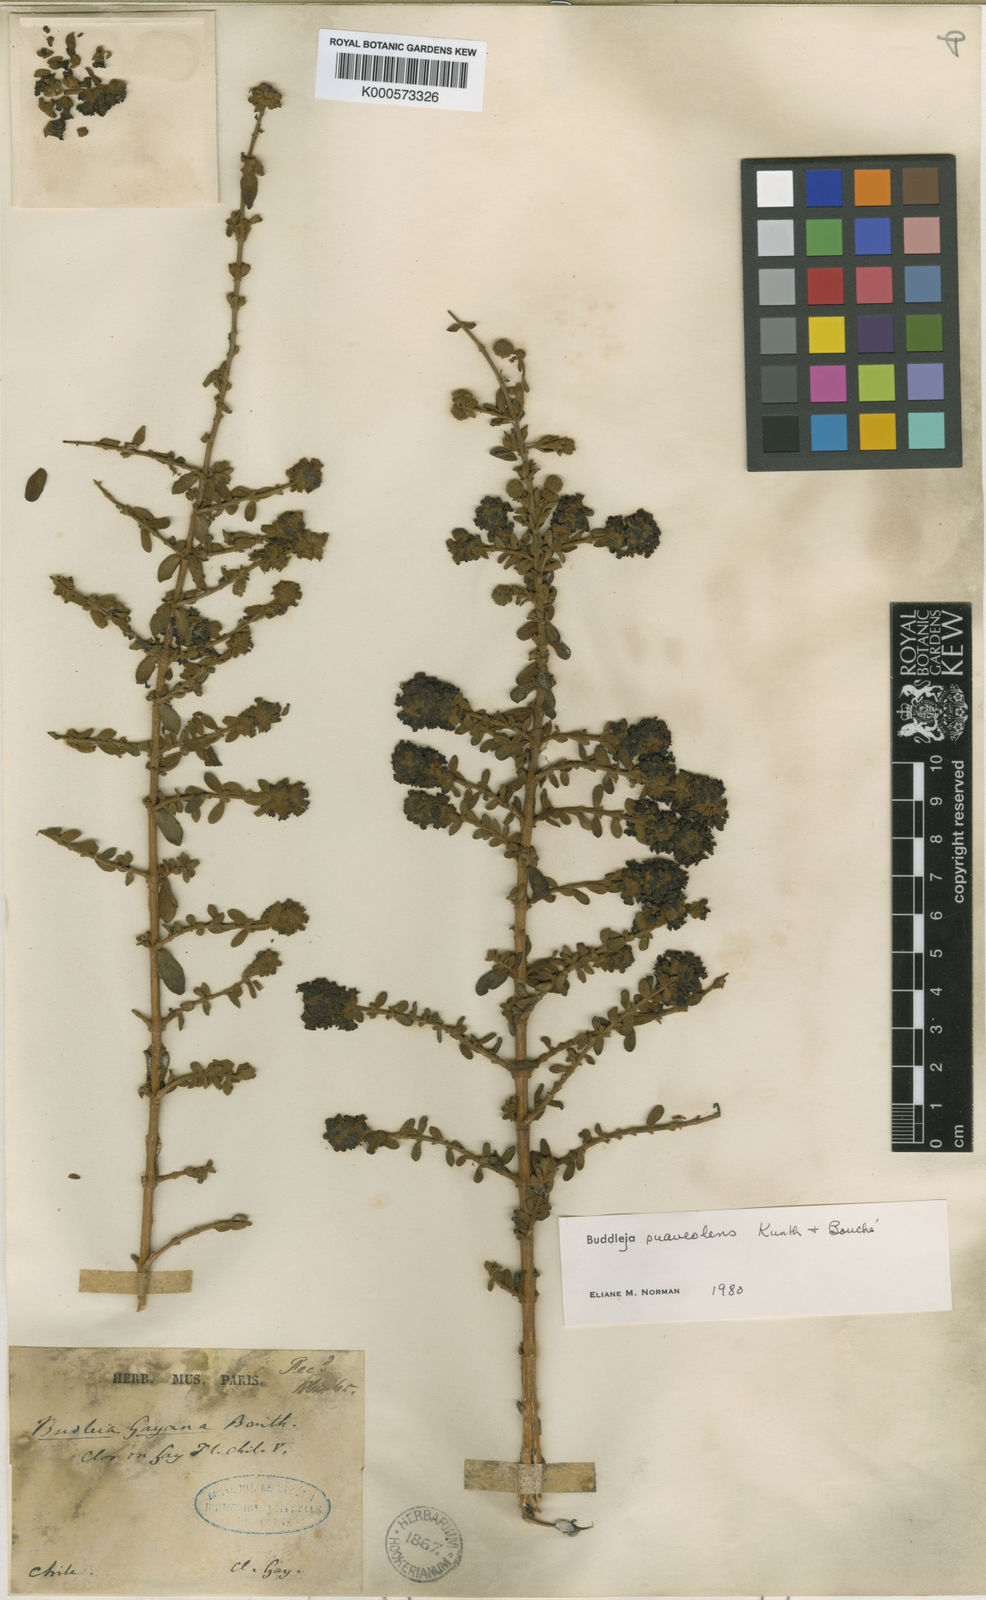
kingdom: Plantae
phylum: Tracheophyta
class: Magnoliopsida
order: Lamiales
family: Scrophulariaceae
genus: Buddleja
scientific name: Buddleja suaveolens
